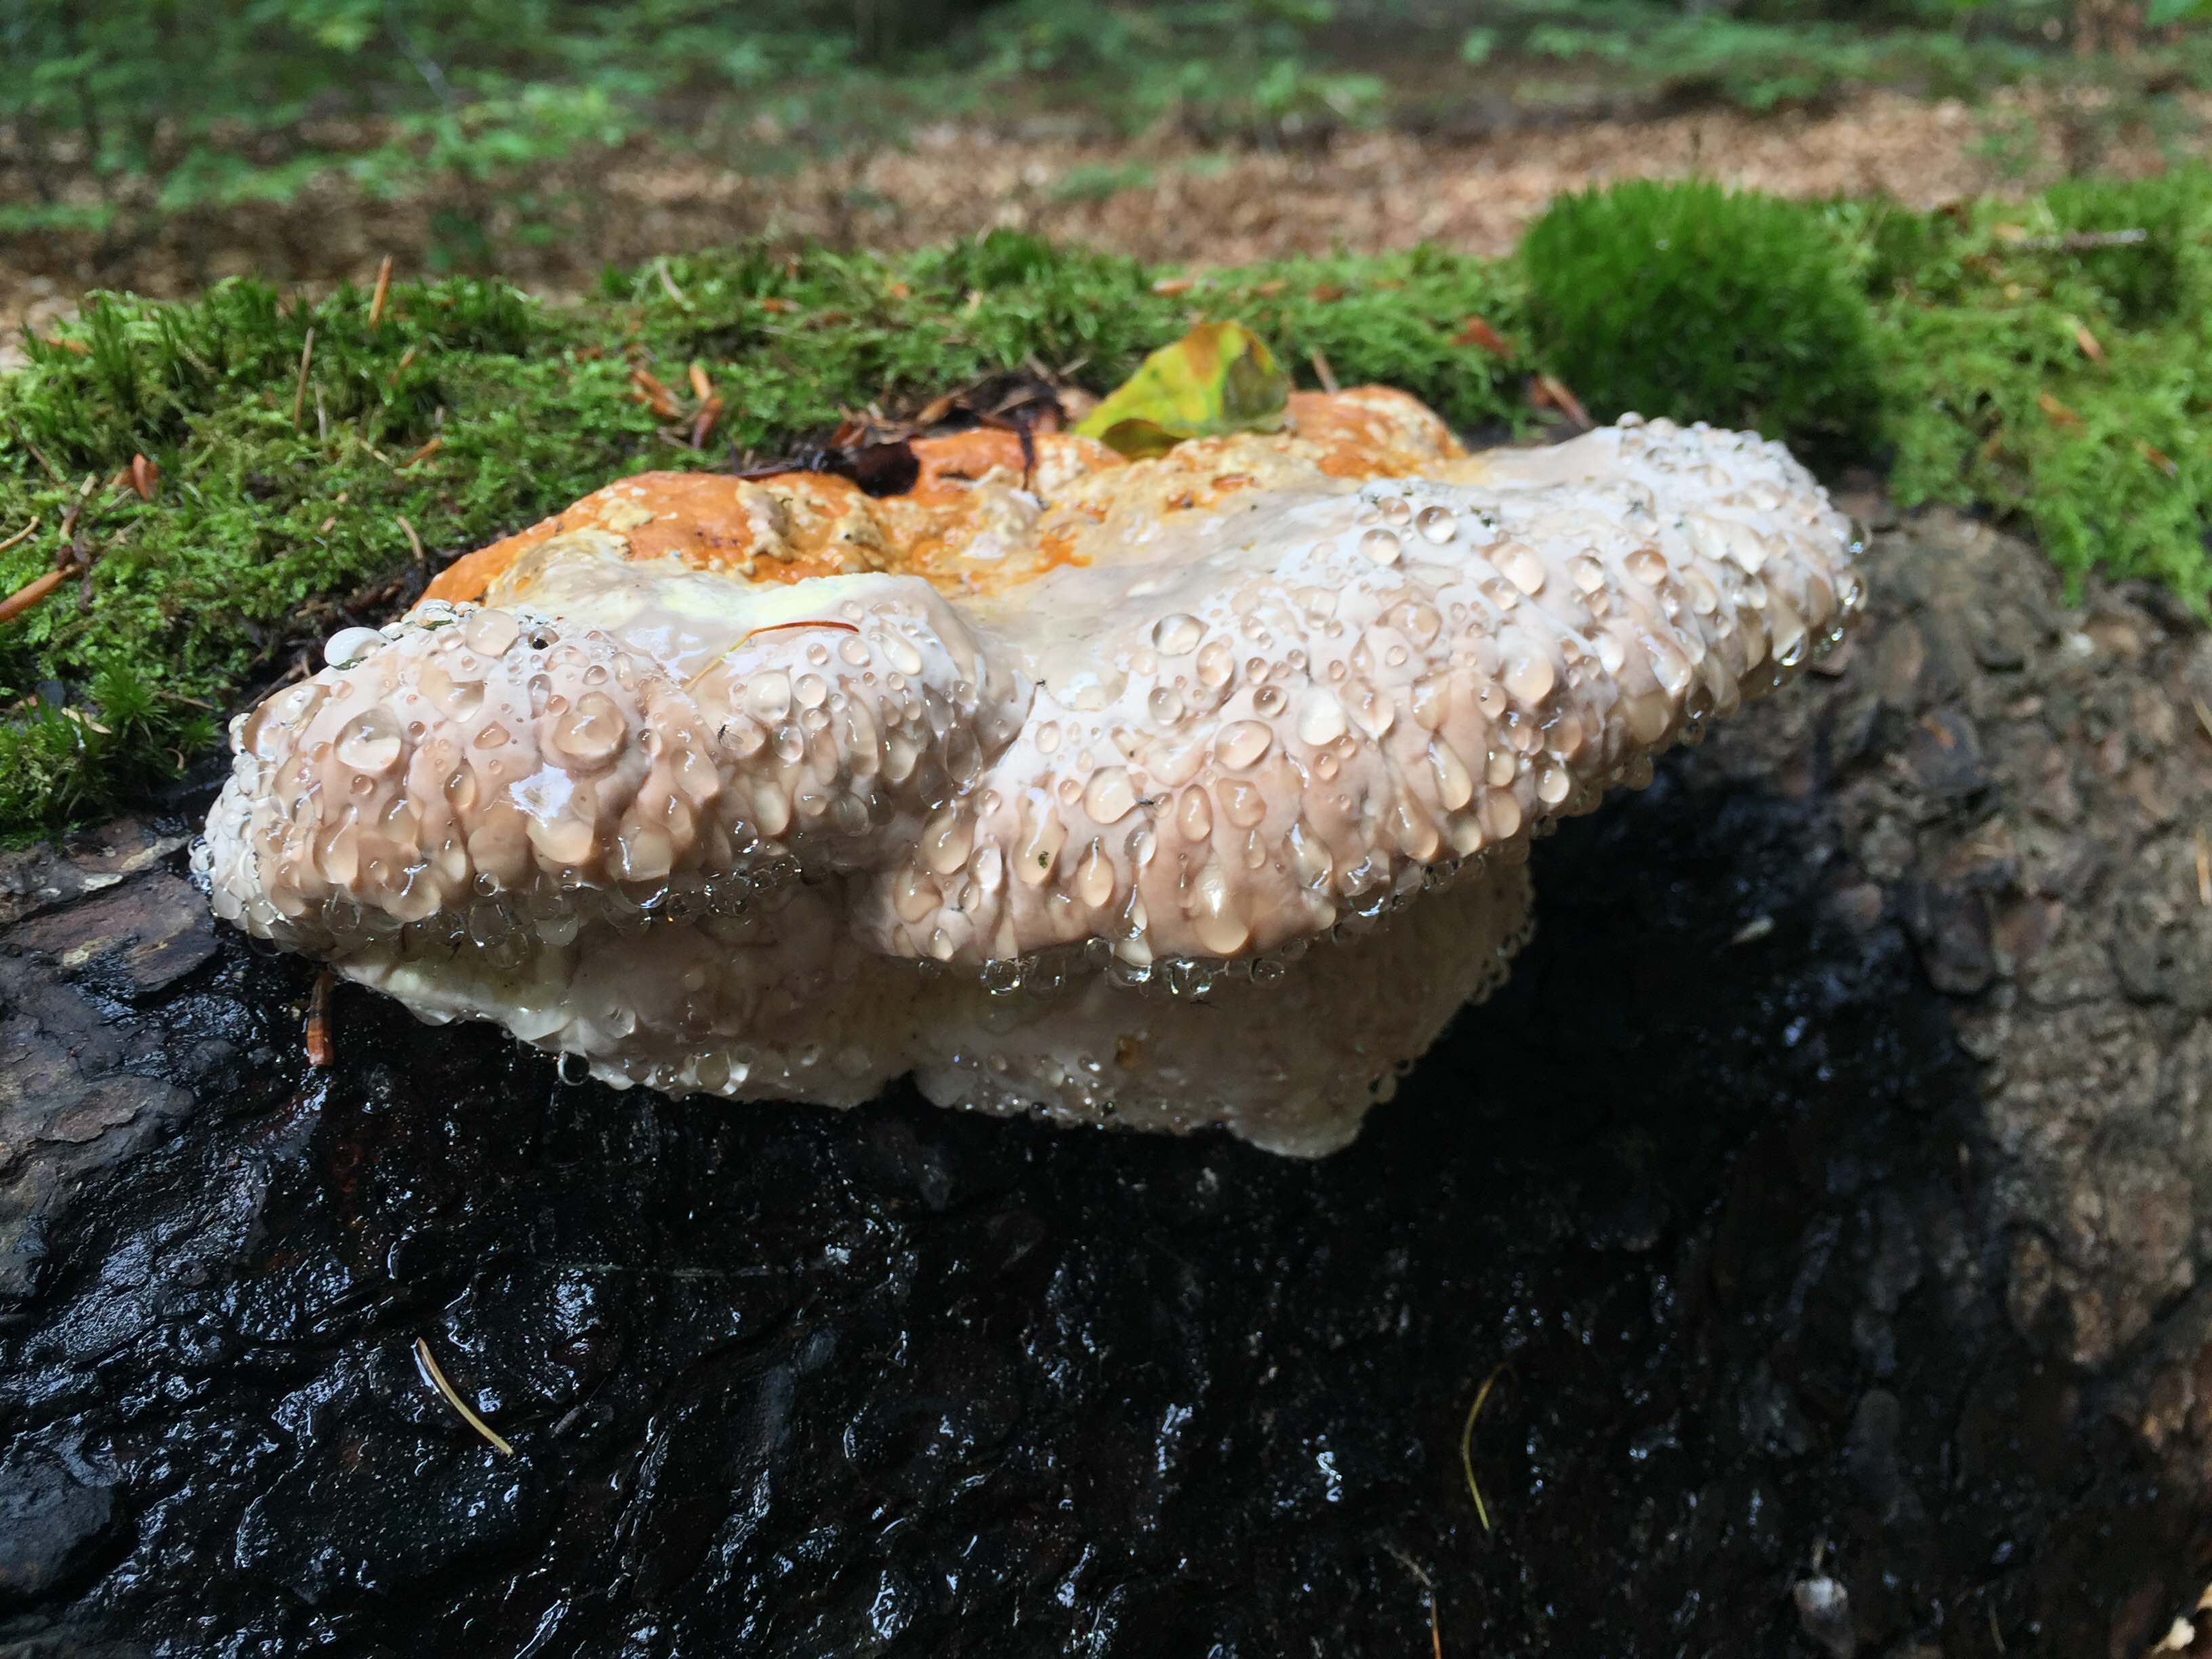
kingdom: Fungi
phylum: Basidiomycota
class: Agaricomycetes
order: Polyporales
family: Fomitopsidaceae
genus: Fomitopsis
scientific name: Fomitopsis pinicola
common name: randbæltet hovporesvamp
